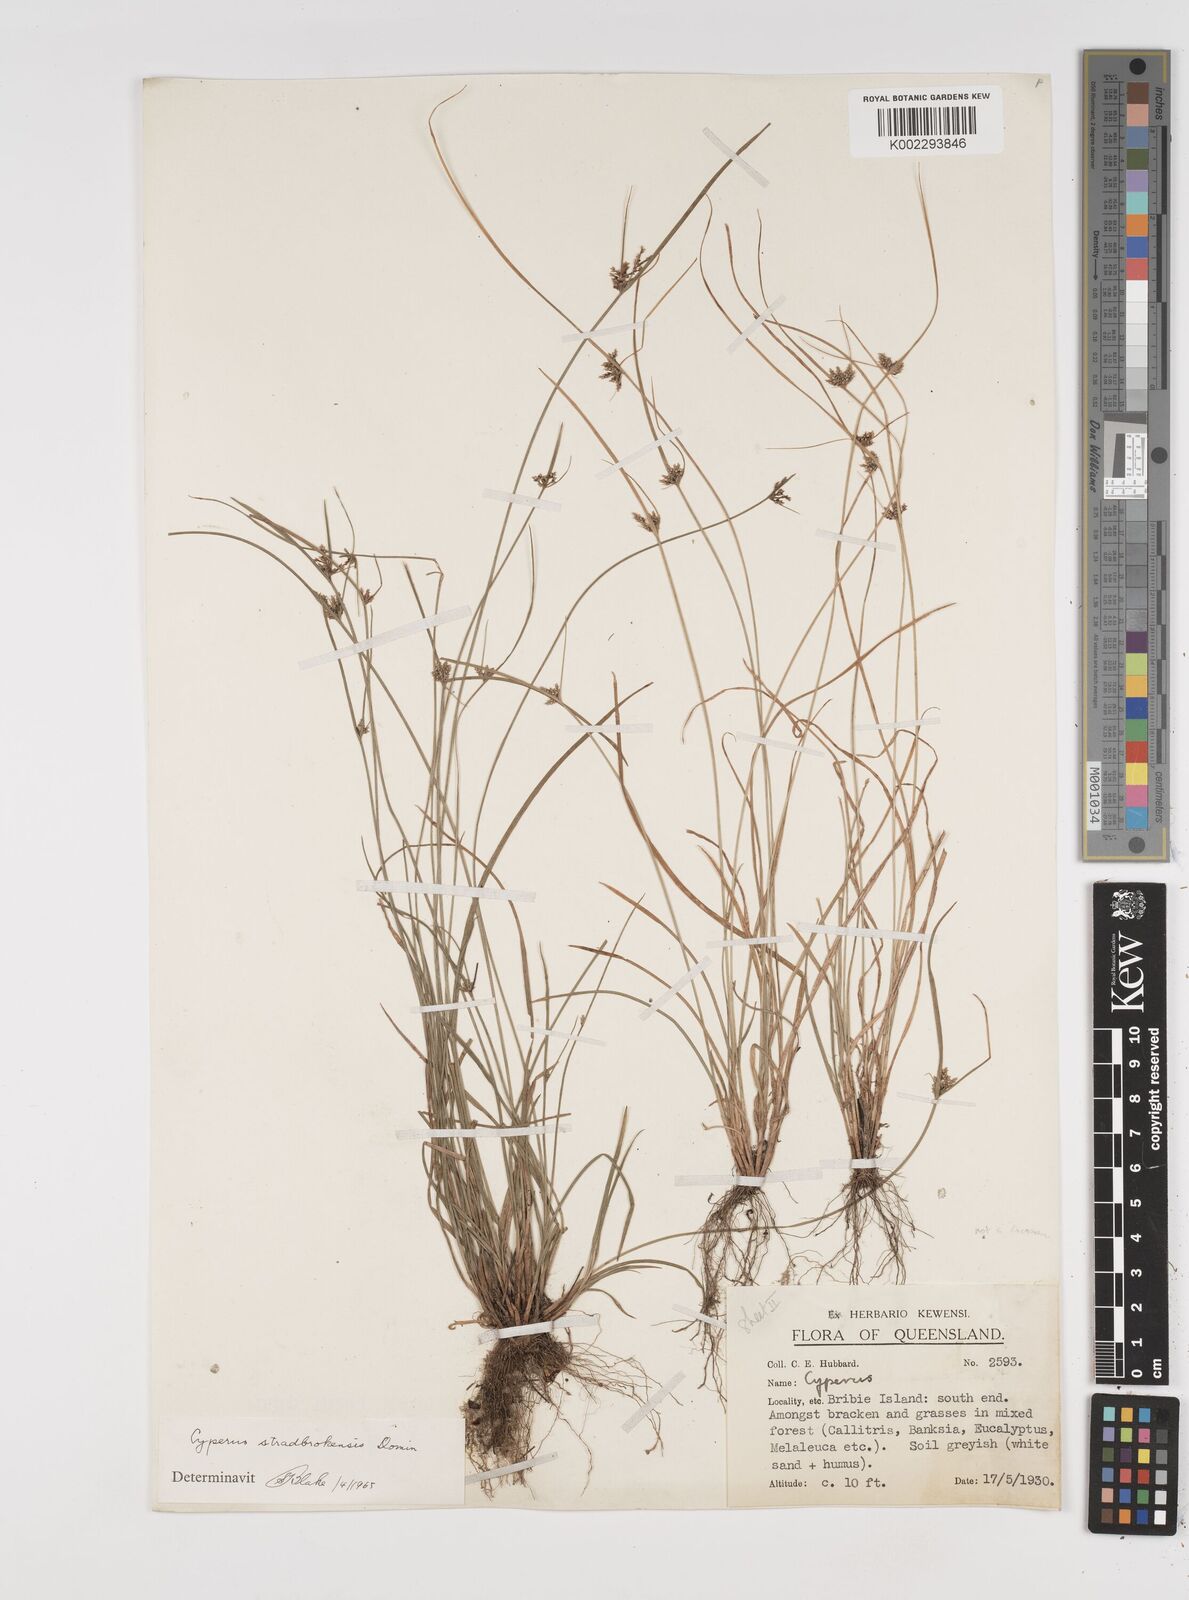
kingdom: Plantae
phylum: Tracheophyta
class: Liliopsida
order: Poales
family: Cyperaceae
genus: Cyperus
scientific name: Cyperus stradbrokensis
